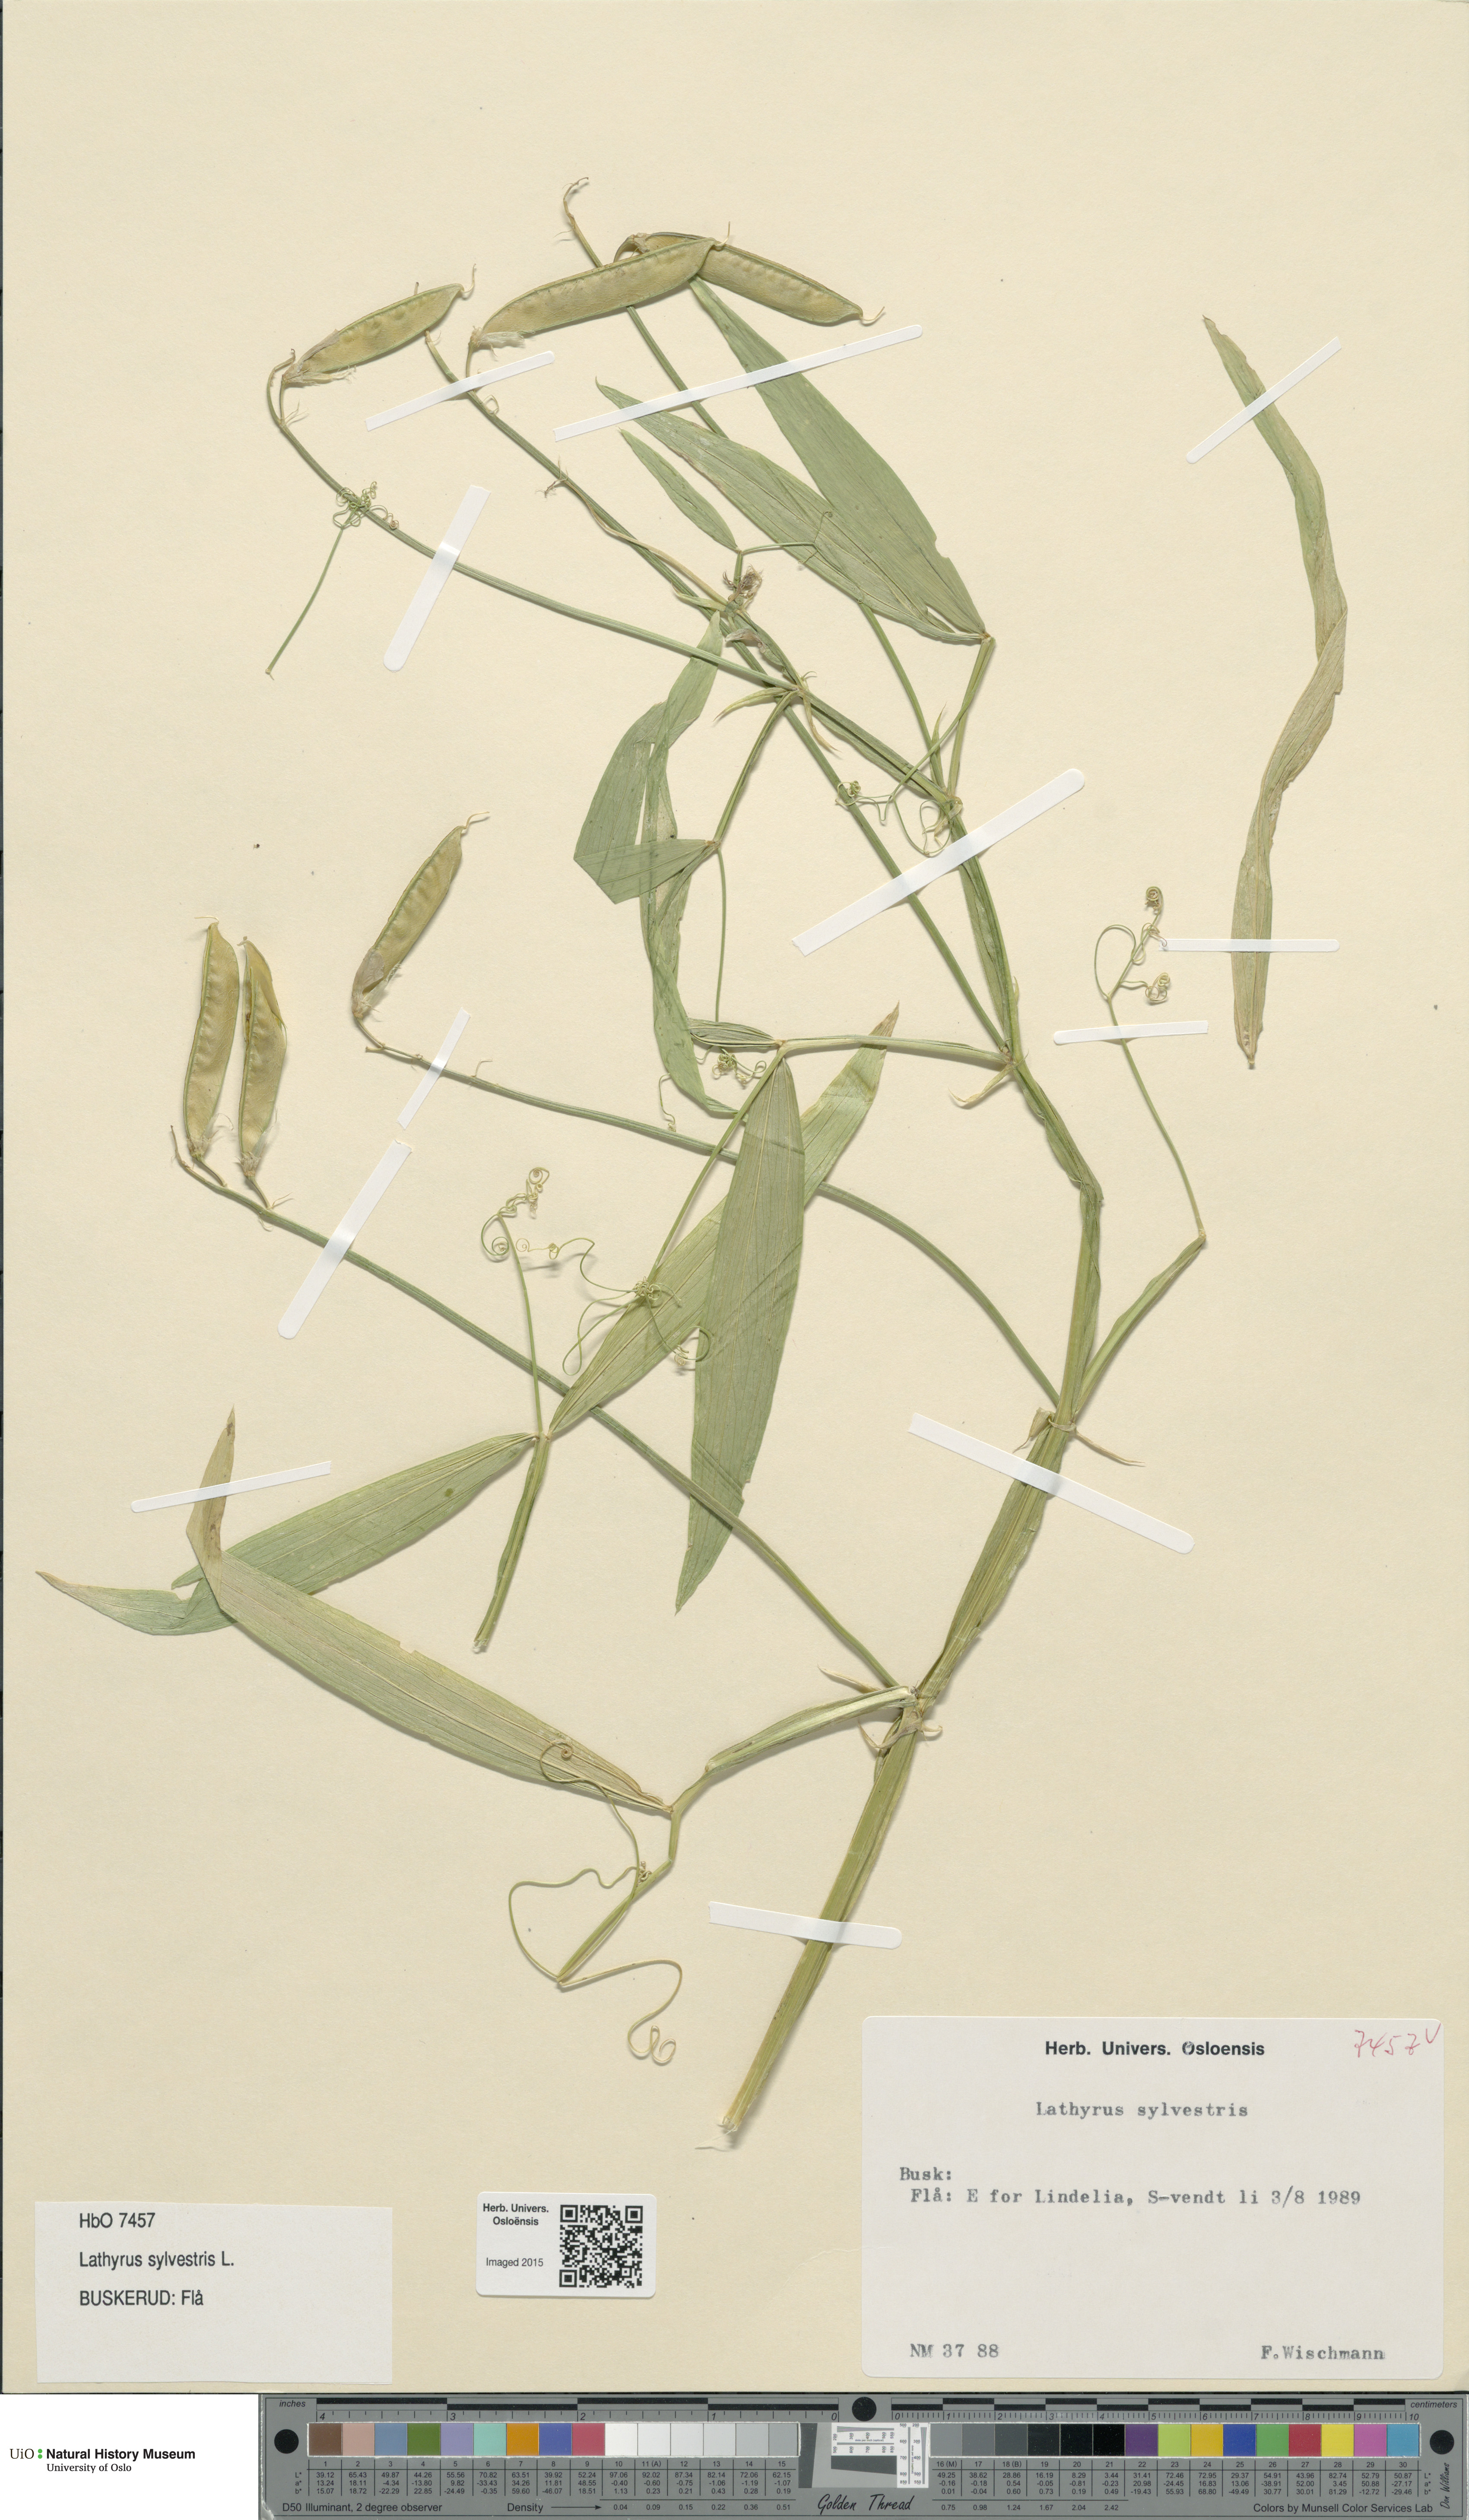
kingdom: Plantae
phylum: Tracheophyta
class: Magnoliopsida
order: Fabales
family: Fabaceae
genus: Lathyrus
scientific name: Lathyrus sylvestris
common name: Flat pea
